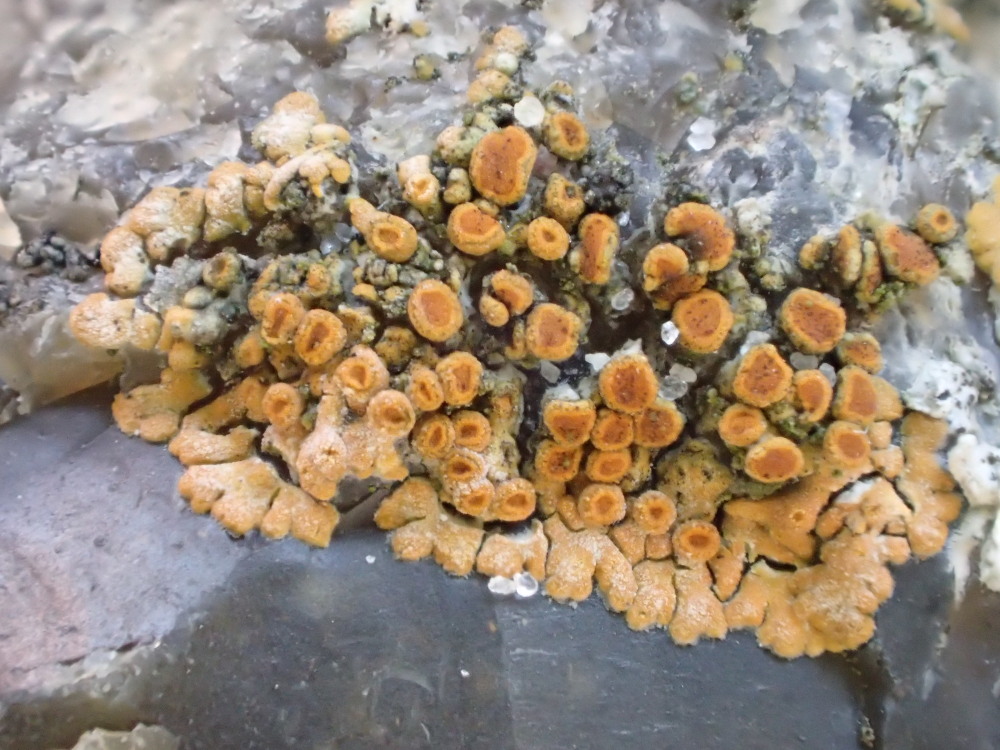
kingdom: Fungi
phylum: Ascomycota
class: Lecanoromycetes
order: Teloschistales
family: Teloschistaceae
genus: Calogaya
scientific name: Calogaya pusilla
